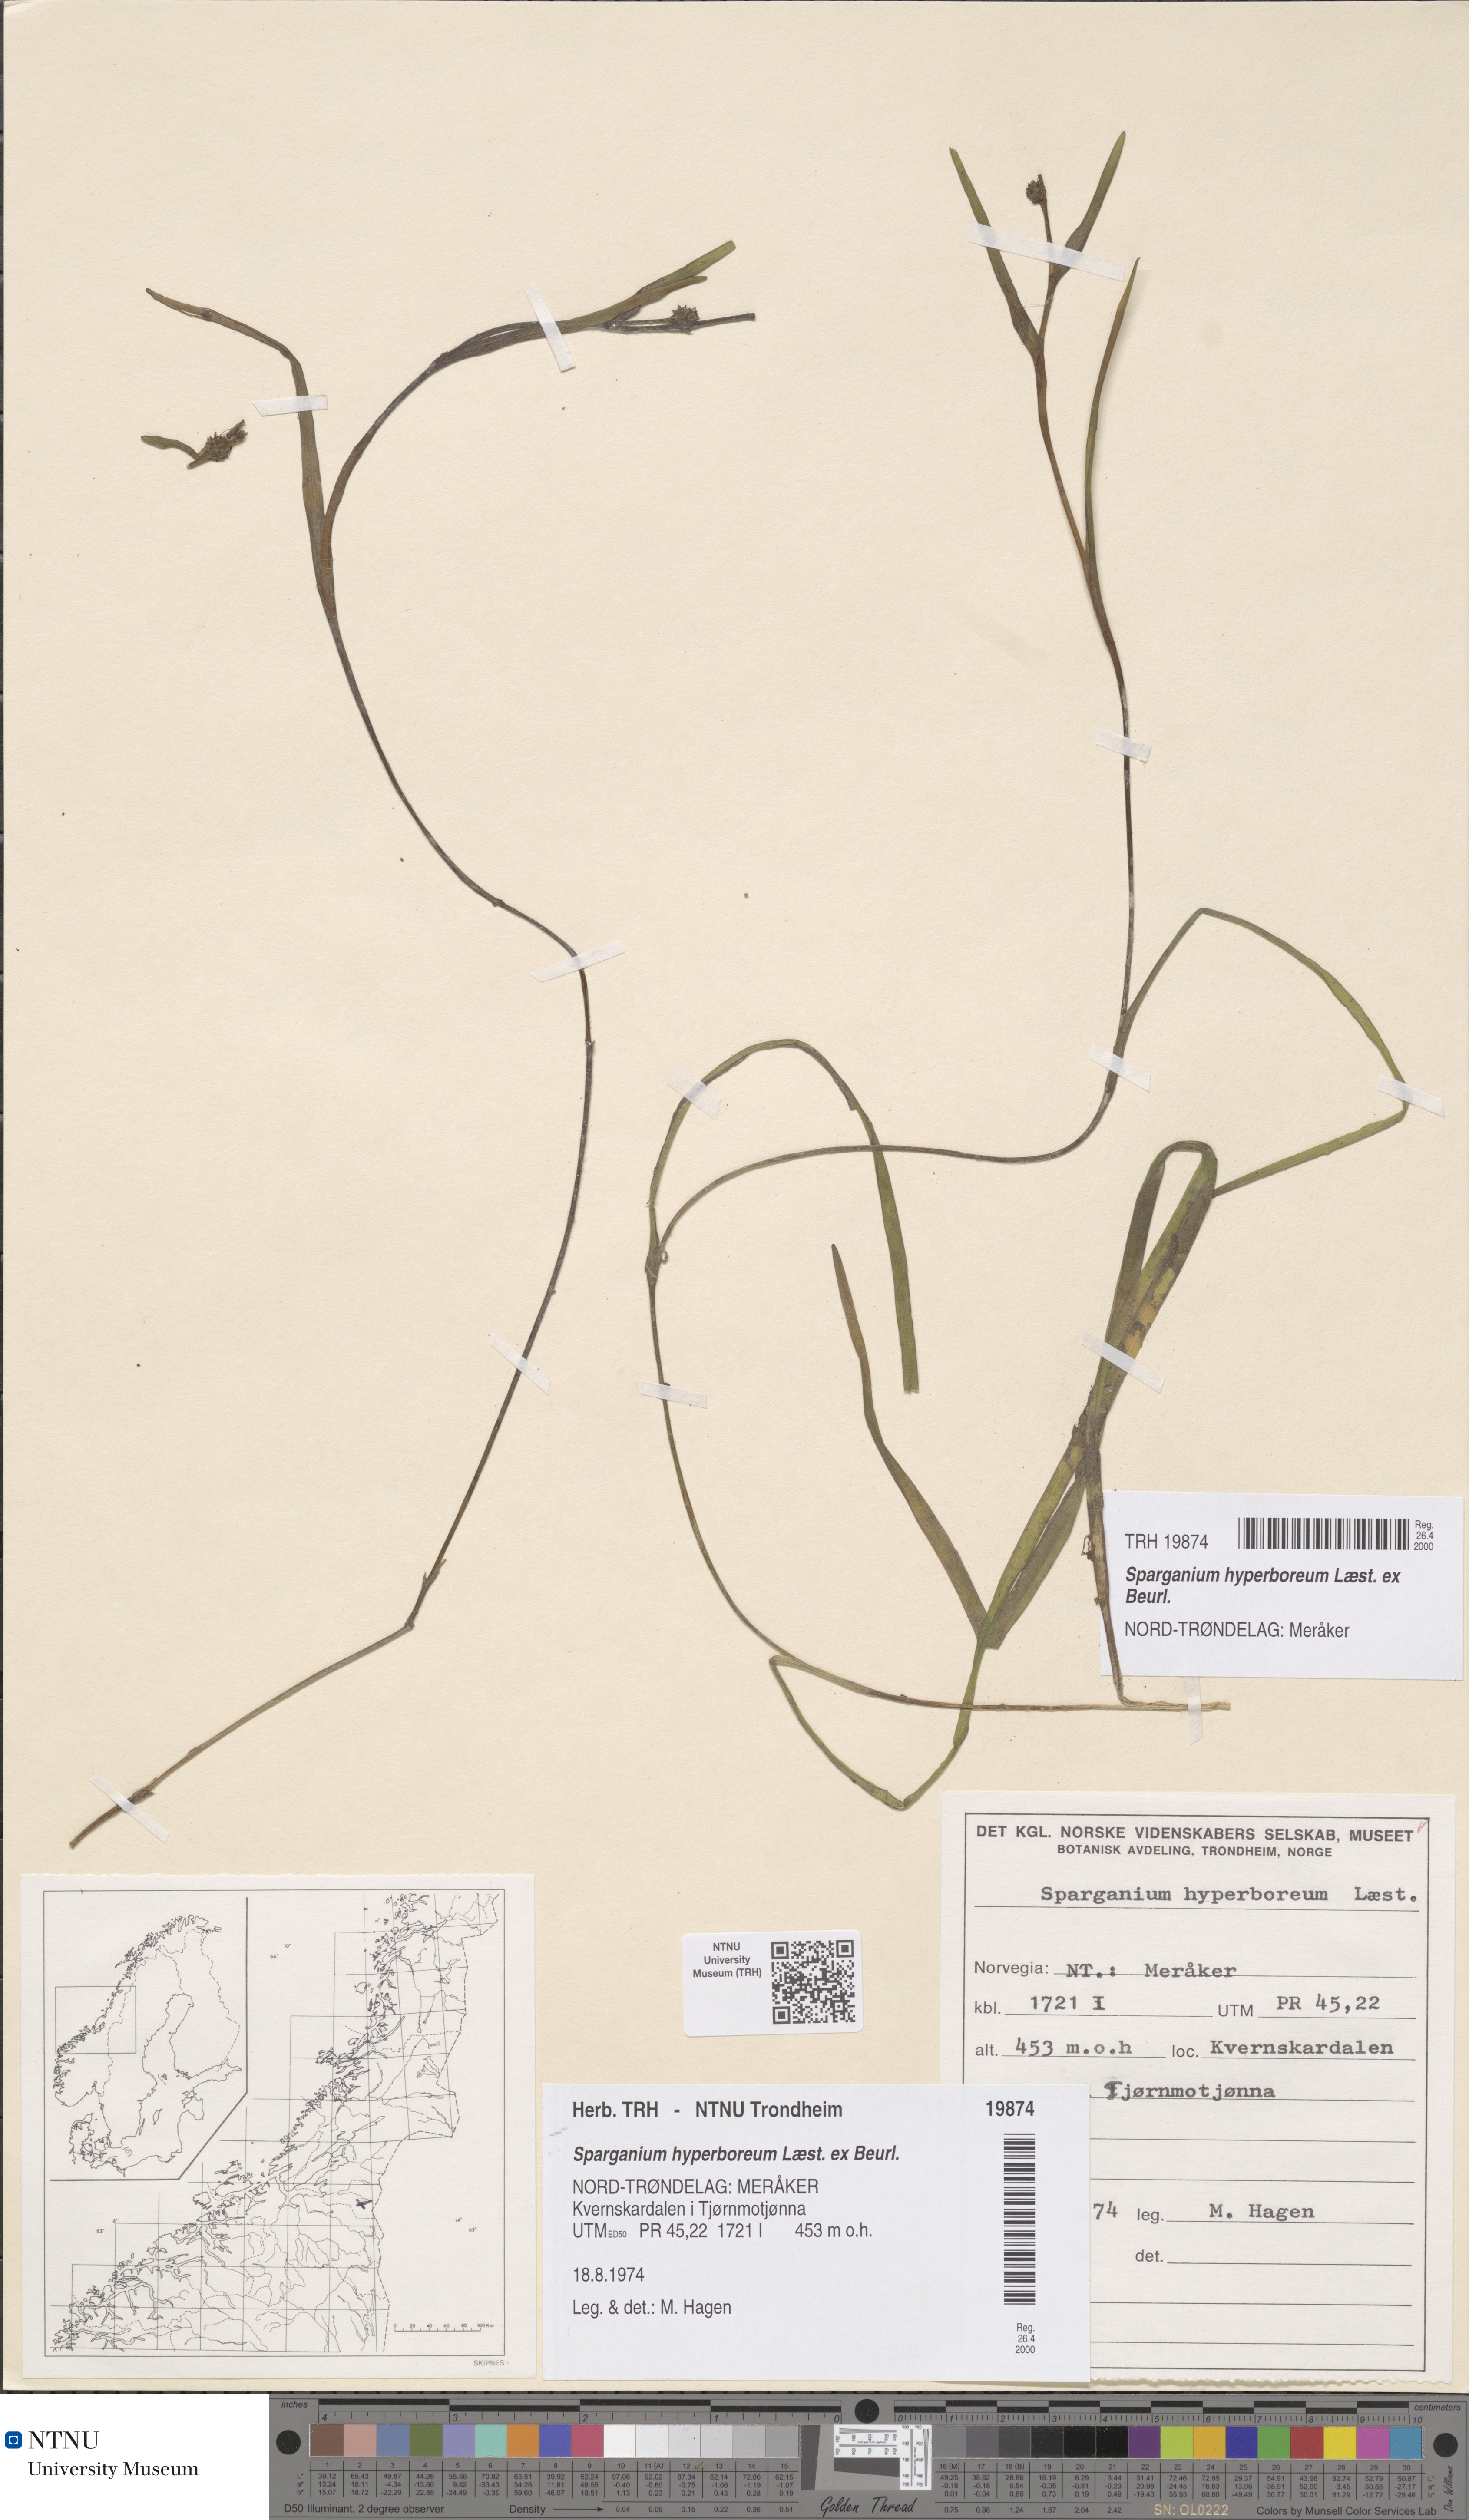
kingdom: Plantae
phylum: Tracheophyta
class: Liliopsida
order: Poales
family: Typhaceae
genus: Sparganium
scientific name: Sparganium hyperboreum
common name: Arctic burreed
